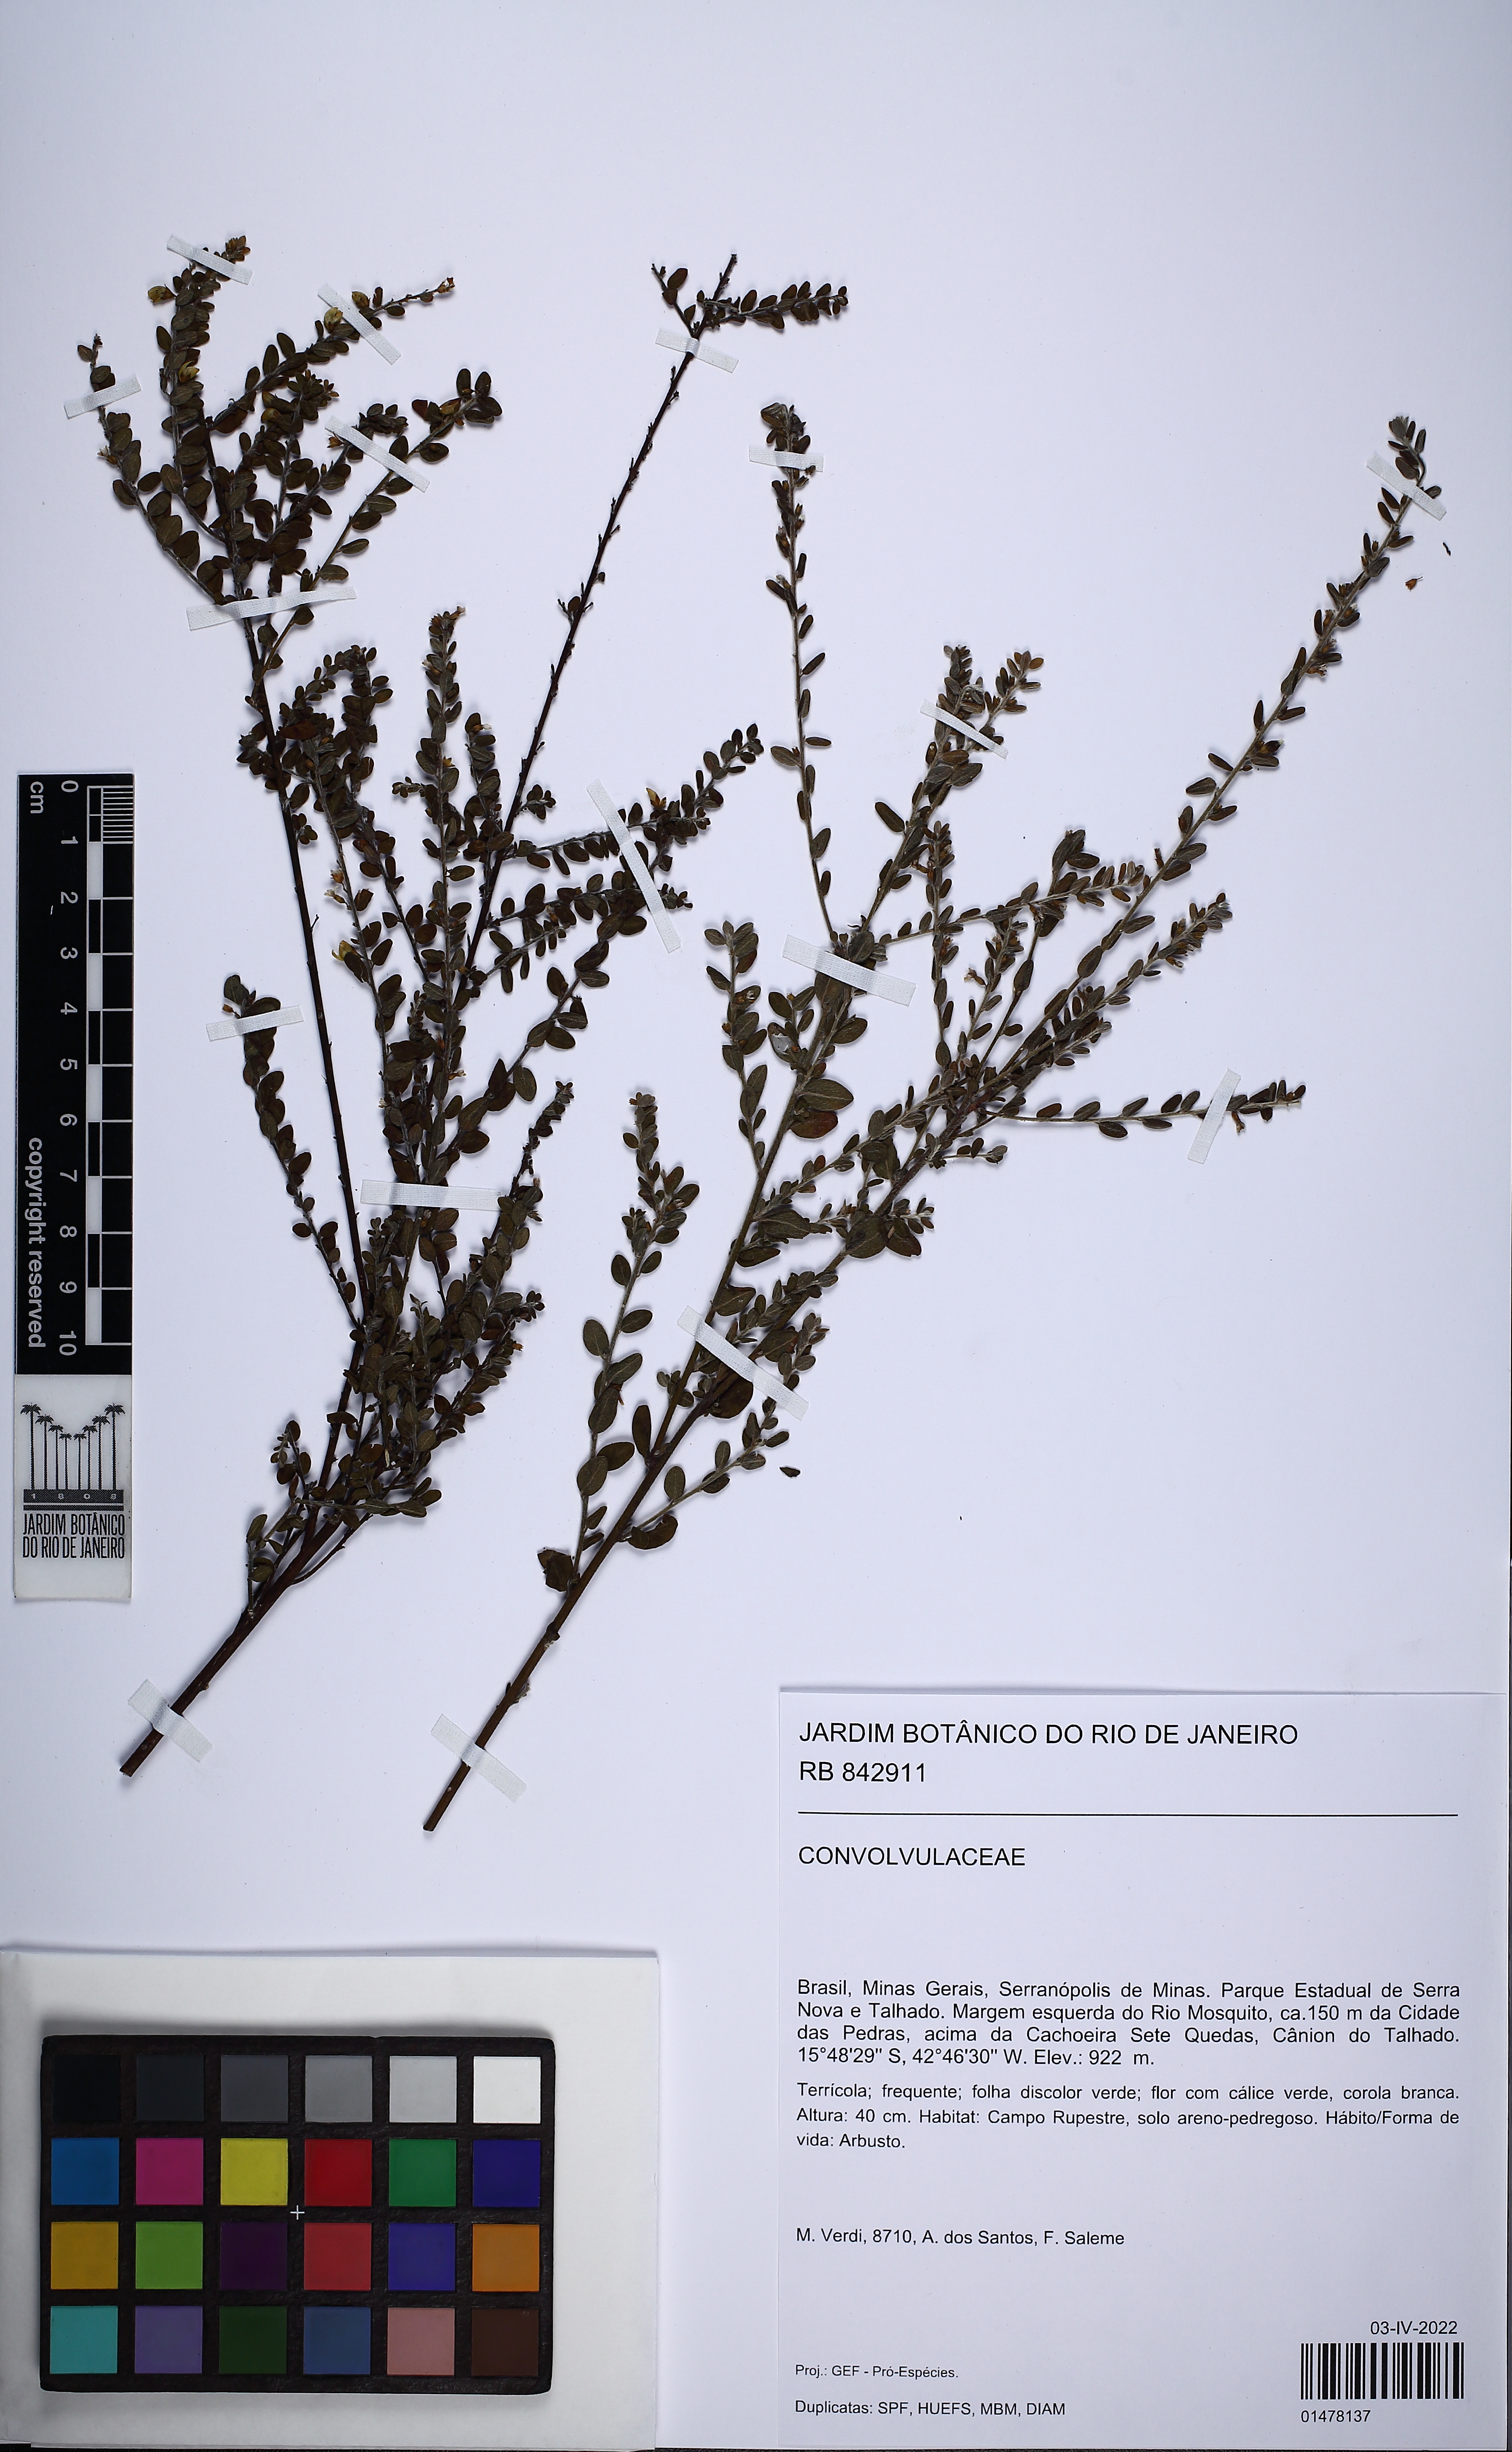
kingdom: Plantae
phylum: Tracheophyta
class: Magnoliopsida
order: Solanales
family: Convolvulaceae
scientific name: Convolvulaceae
